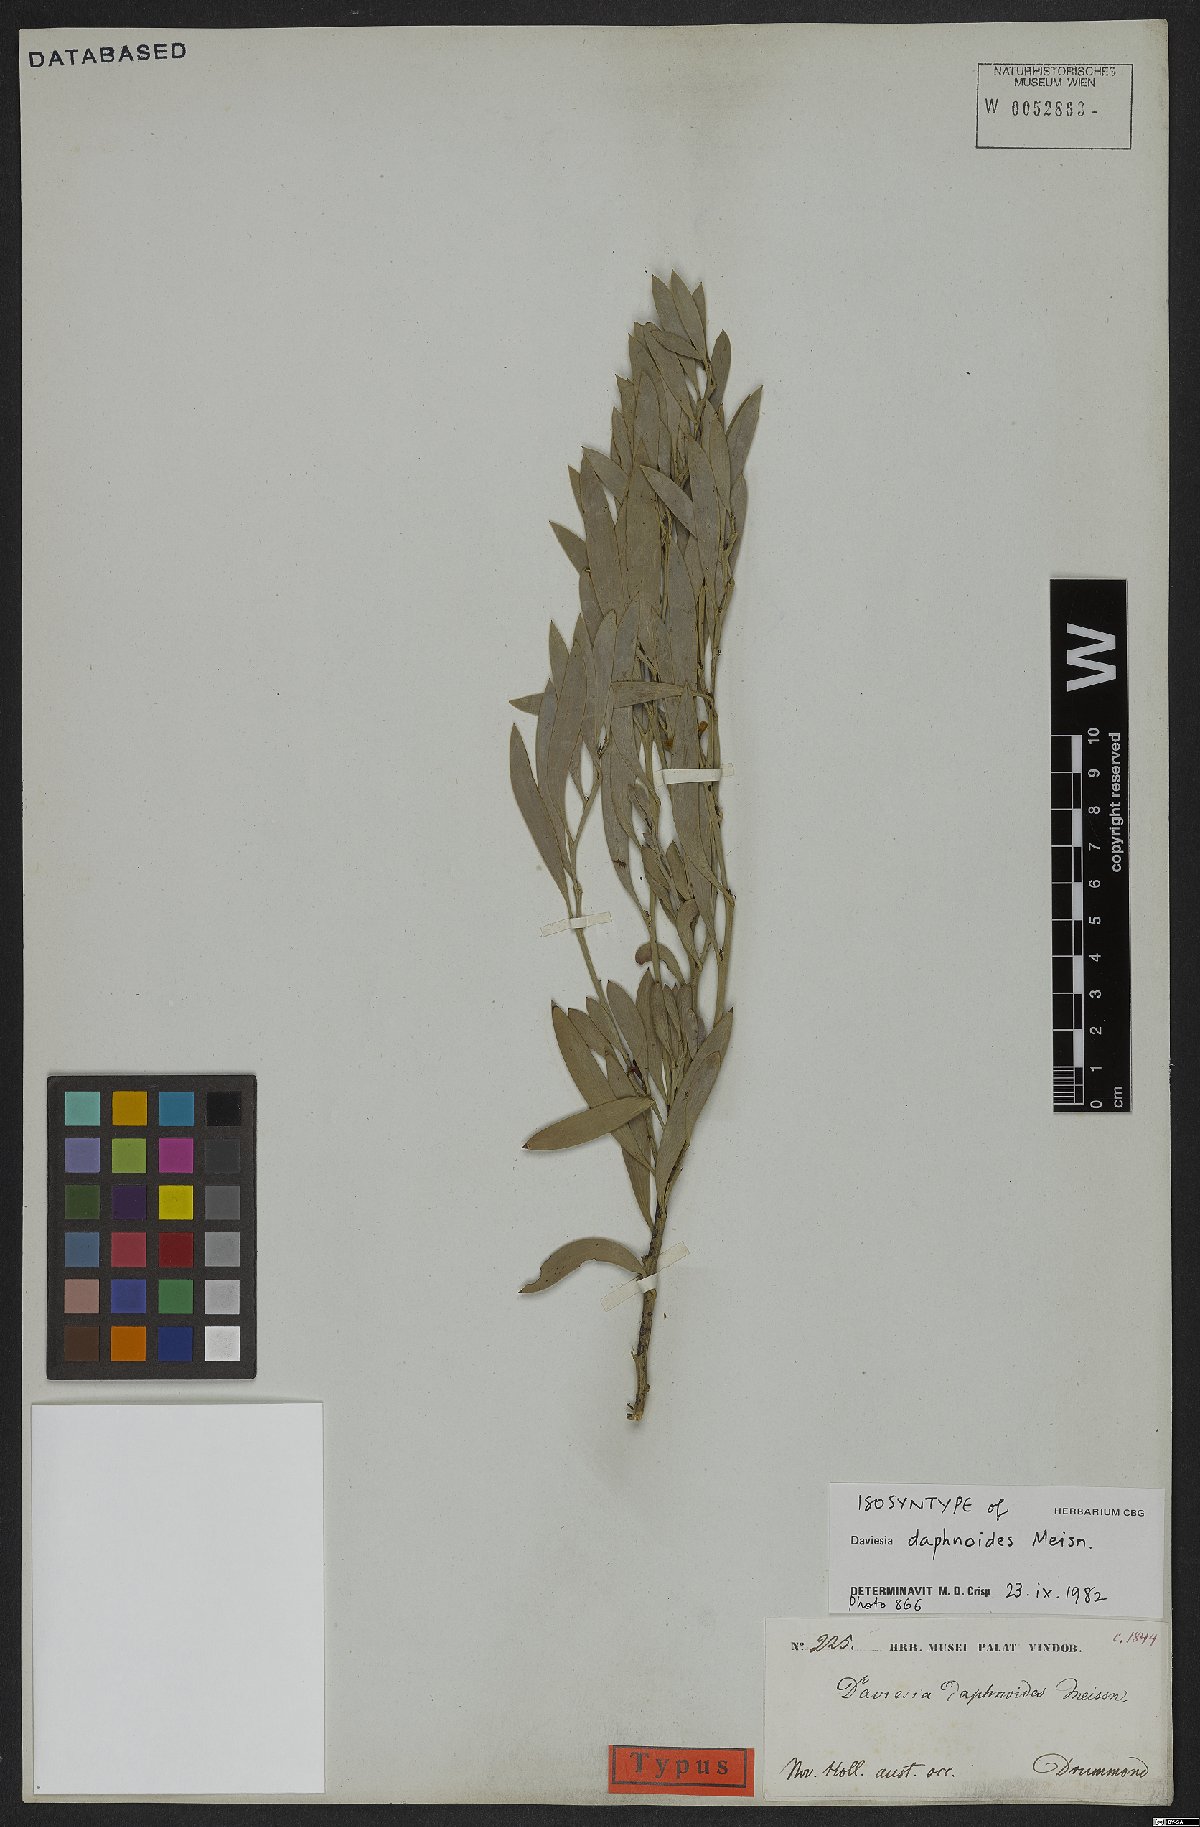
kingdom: Plantae
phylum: Tracheophyta
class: Magnoliopsida
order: Fabales
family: Fabaceae
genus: Daviesia
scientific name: Daviesia daphnoides
